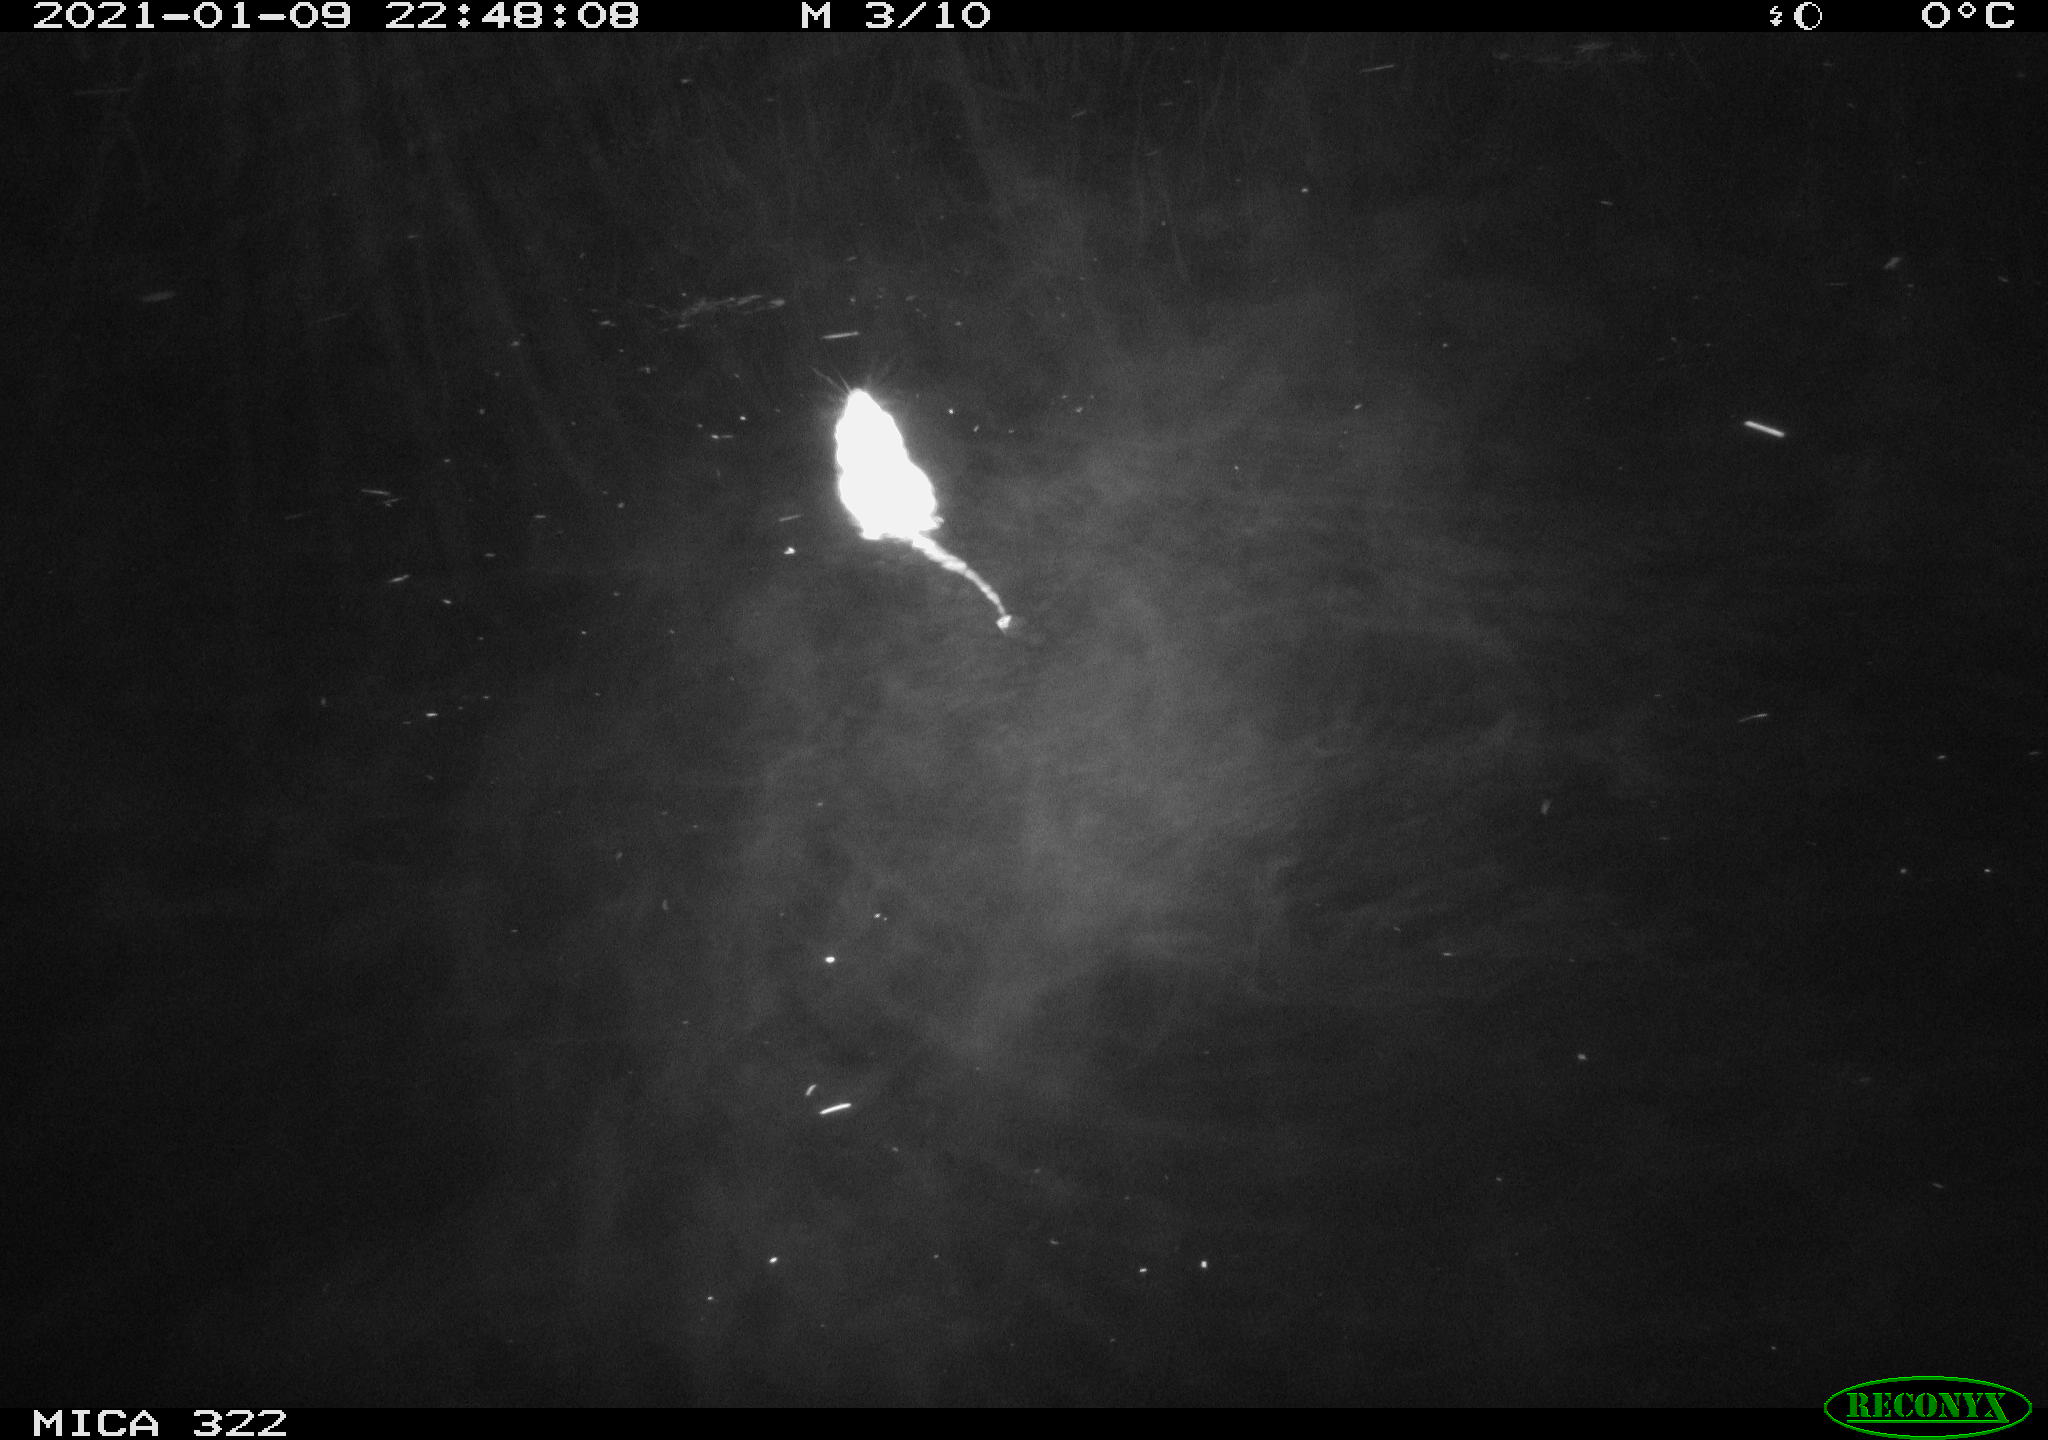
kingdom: Animalia
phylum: Chordata
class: Mammalia
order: Rodentia
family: Muridae
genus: Rattus
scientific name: Rattus norvegicus
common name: Brown rat
